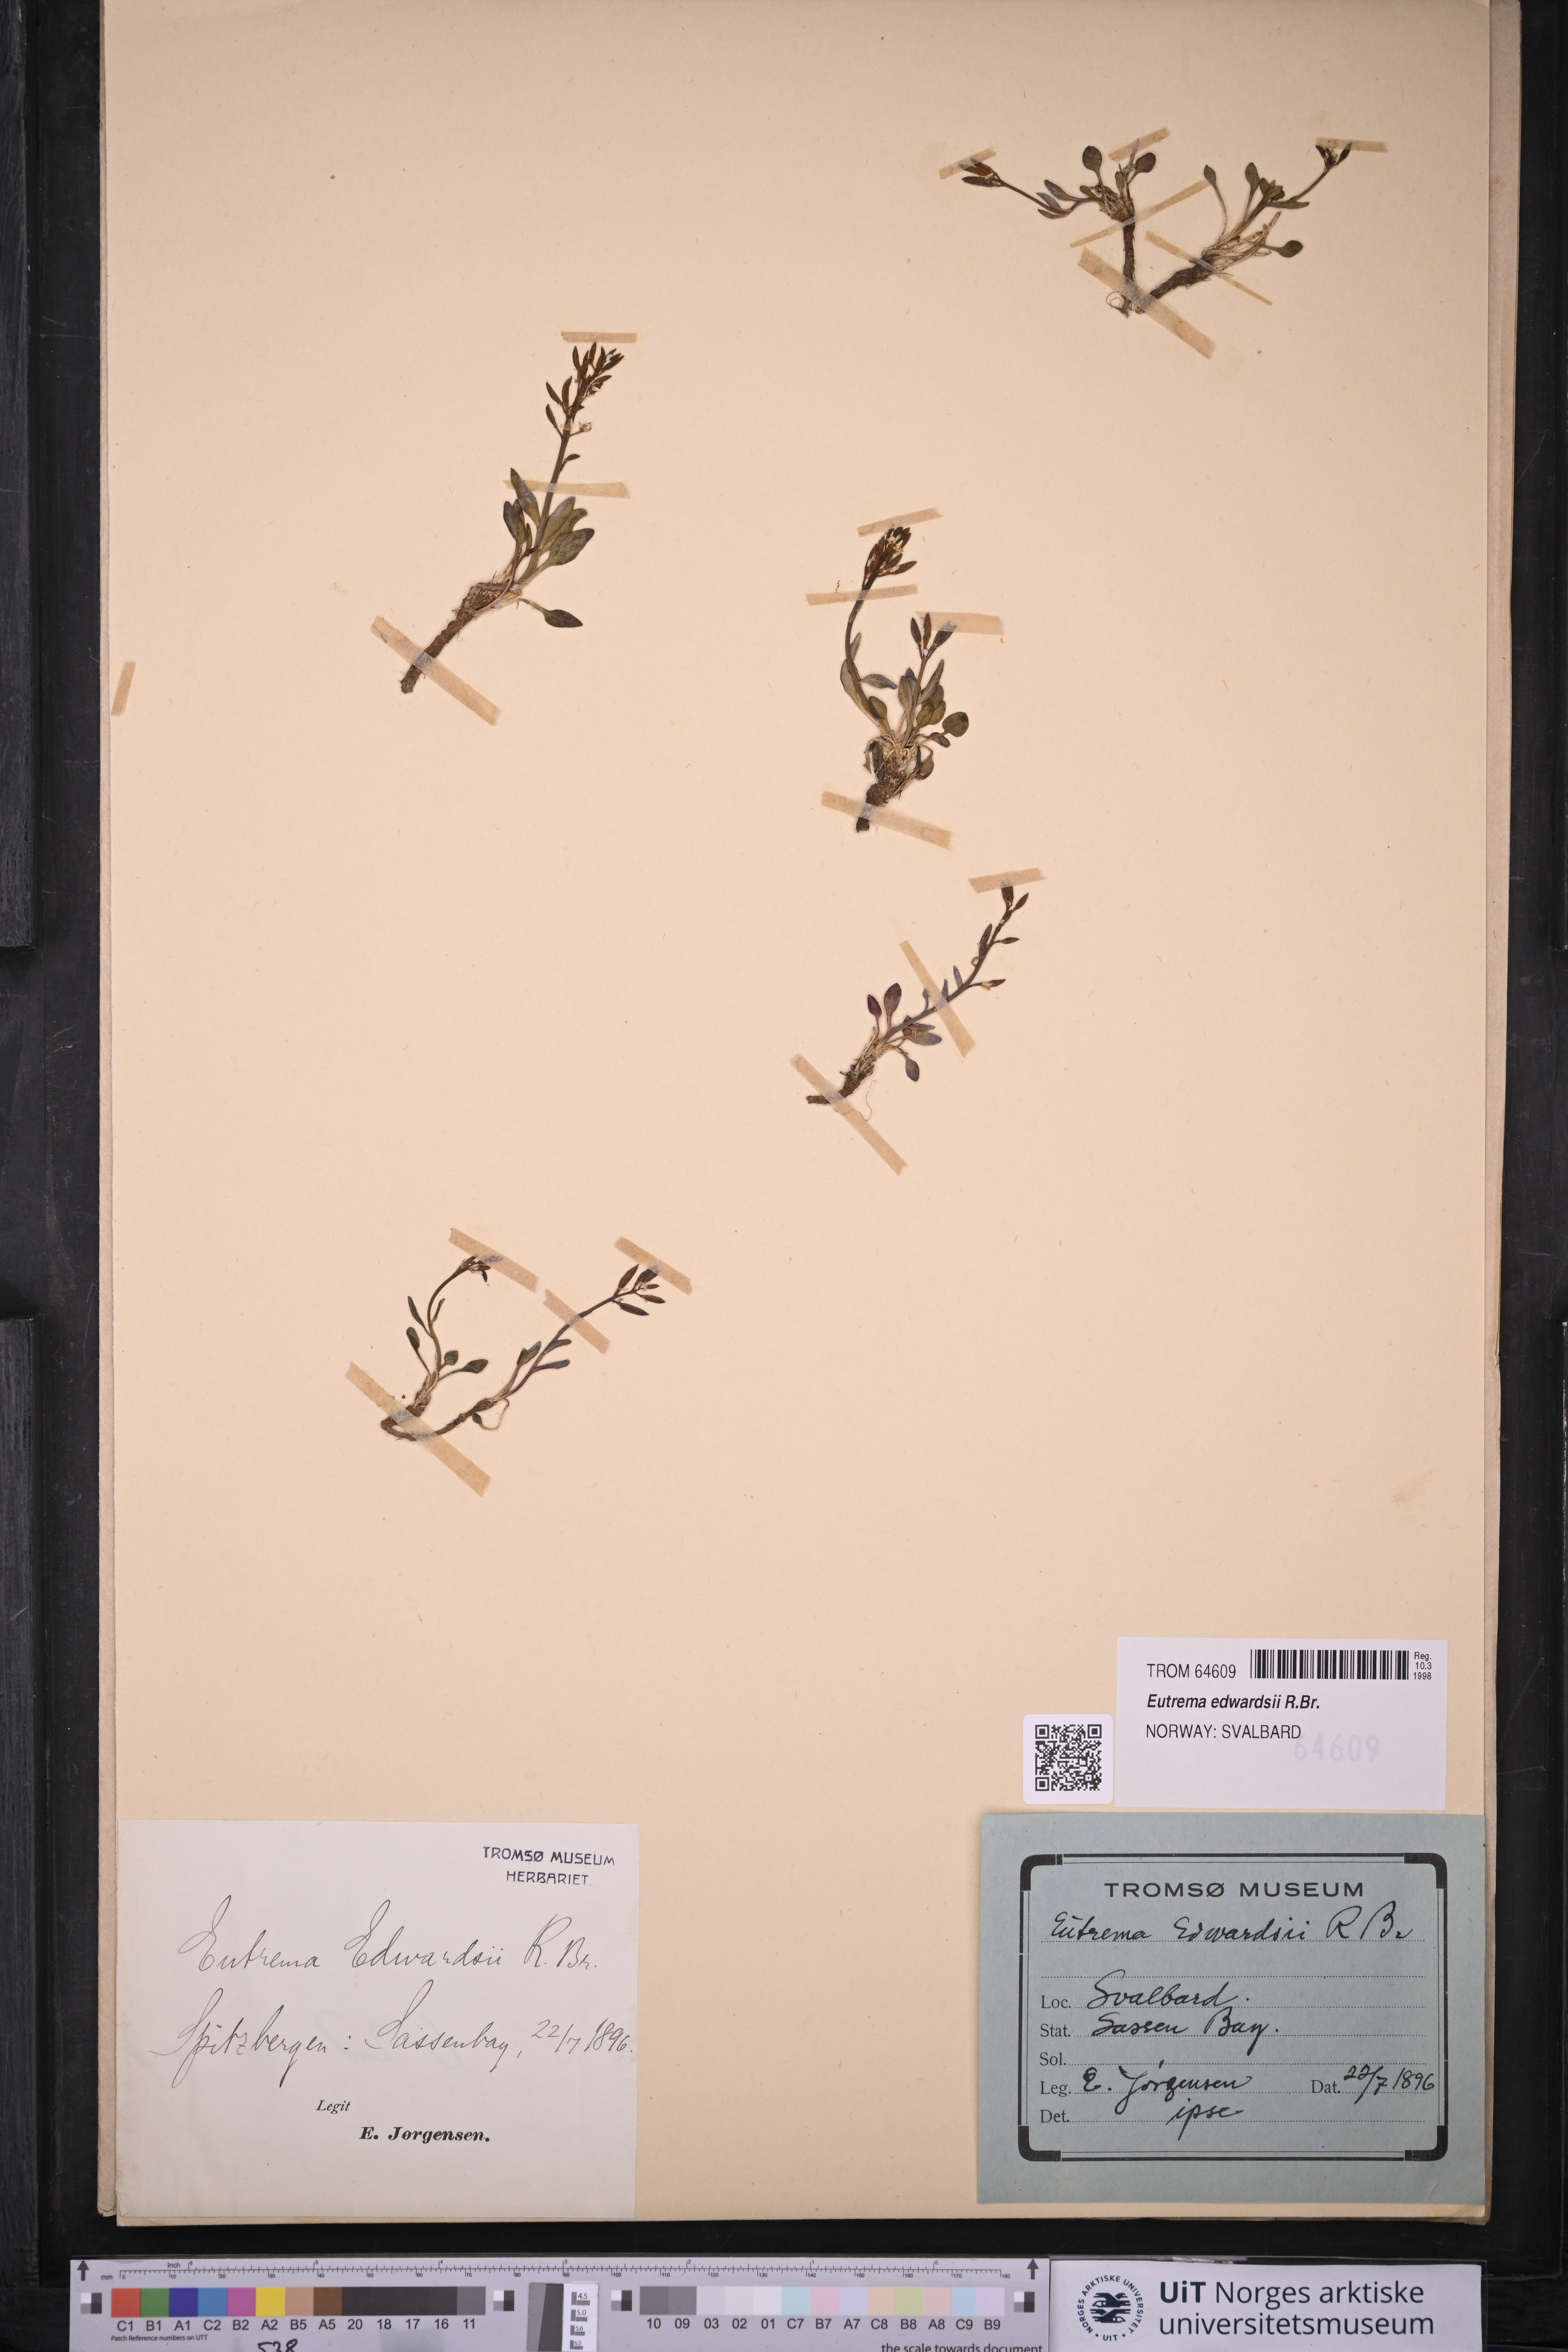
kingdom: Plantae
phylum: Tracheophyta
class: Magnoliopsida
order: Brassicales
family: Brassicaceae
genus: Eutrema
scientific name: Eutrema edwardsii
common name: Penland alpine fen mustard
